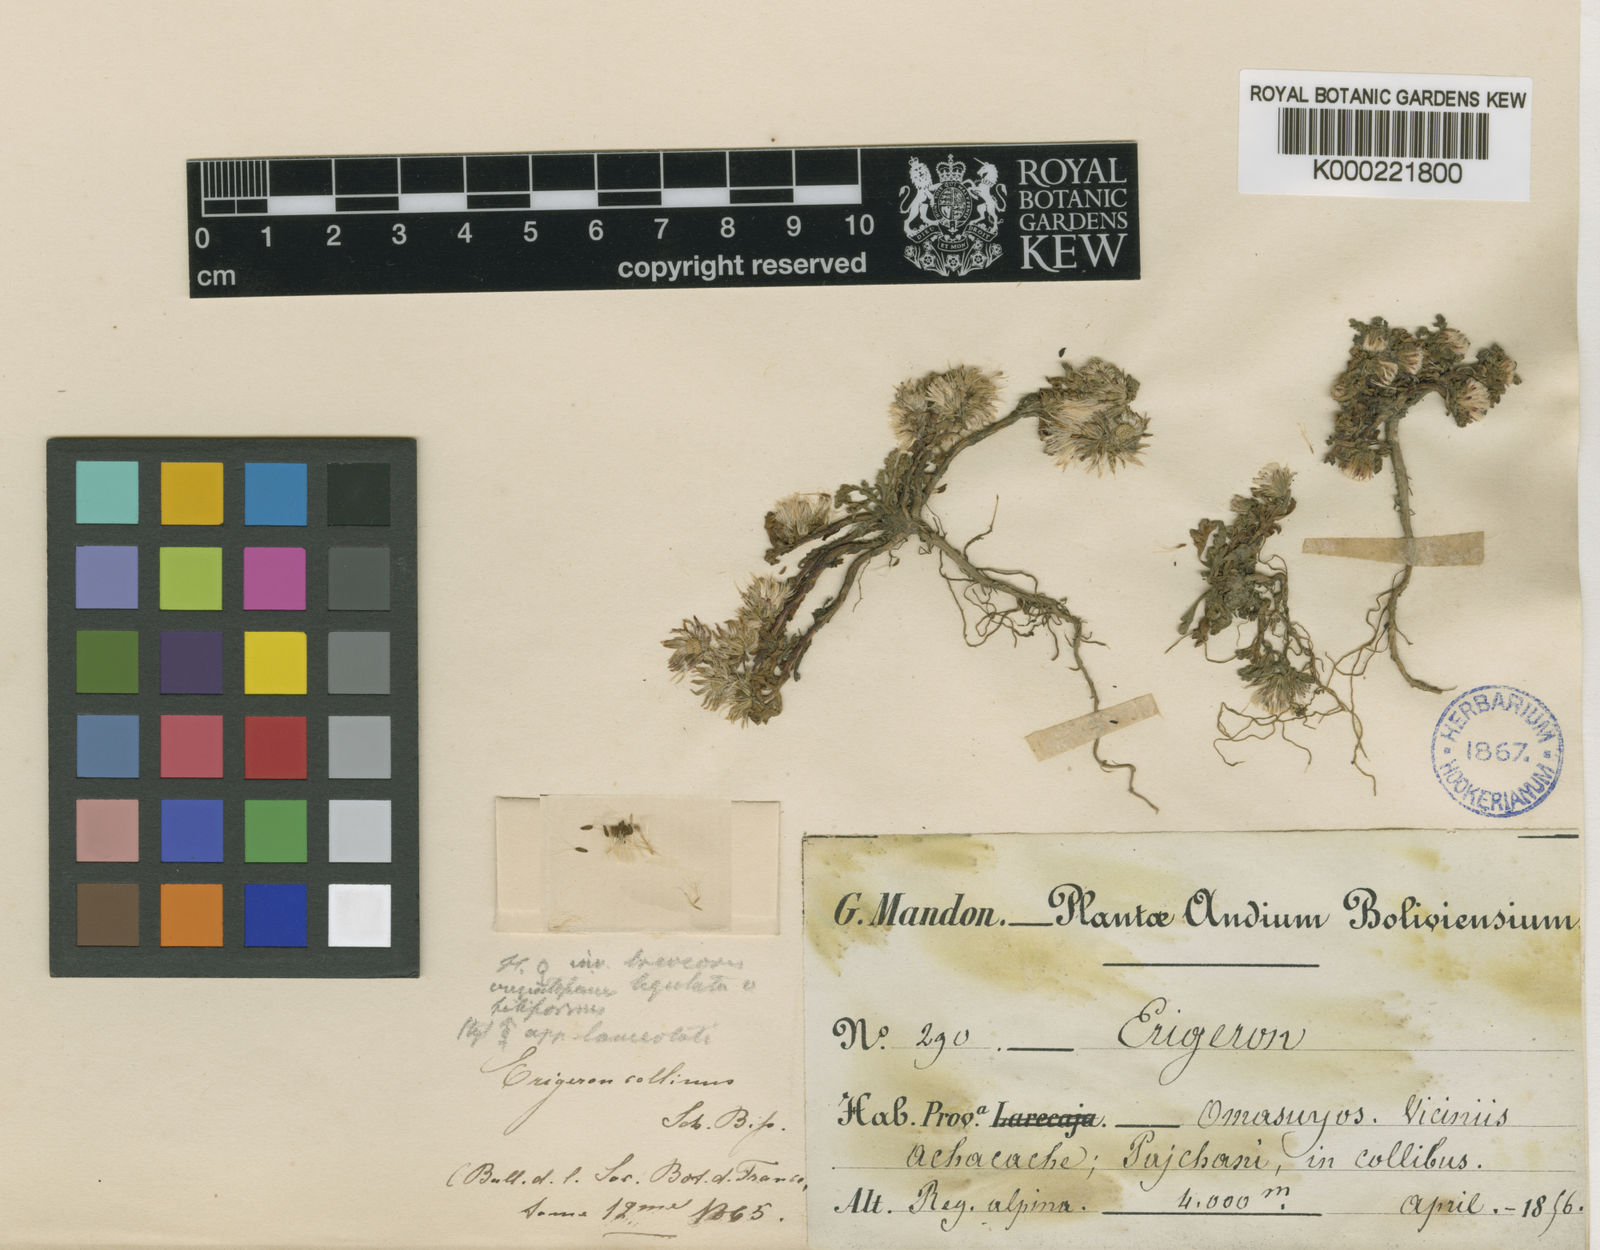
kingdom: Plantae
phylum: Tracheophyta
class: Magnoliopsida
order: Asterales
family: Asteraceae
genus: Erigeron
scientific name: Erigeron collinus
